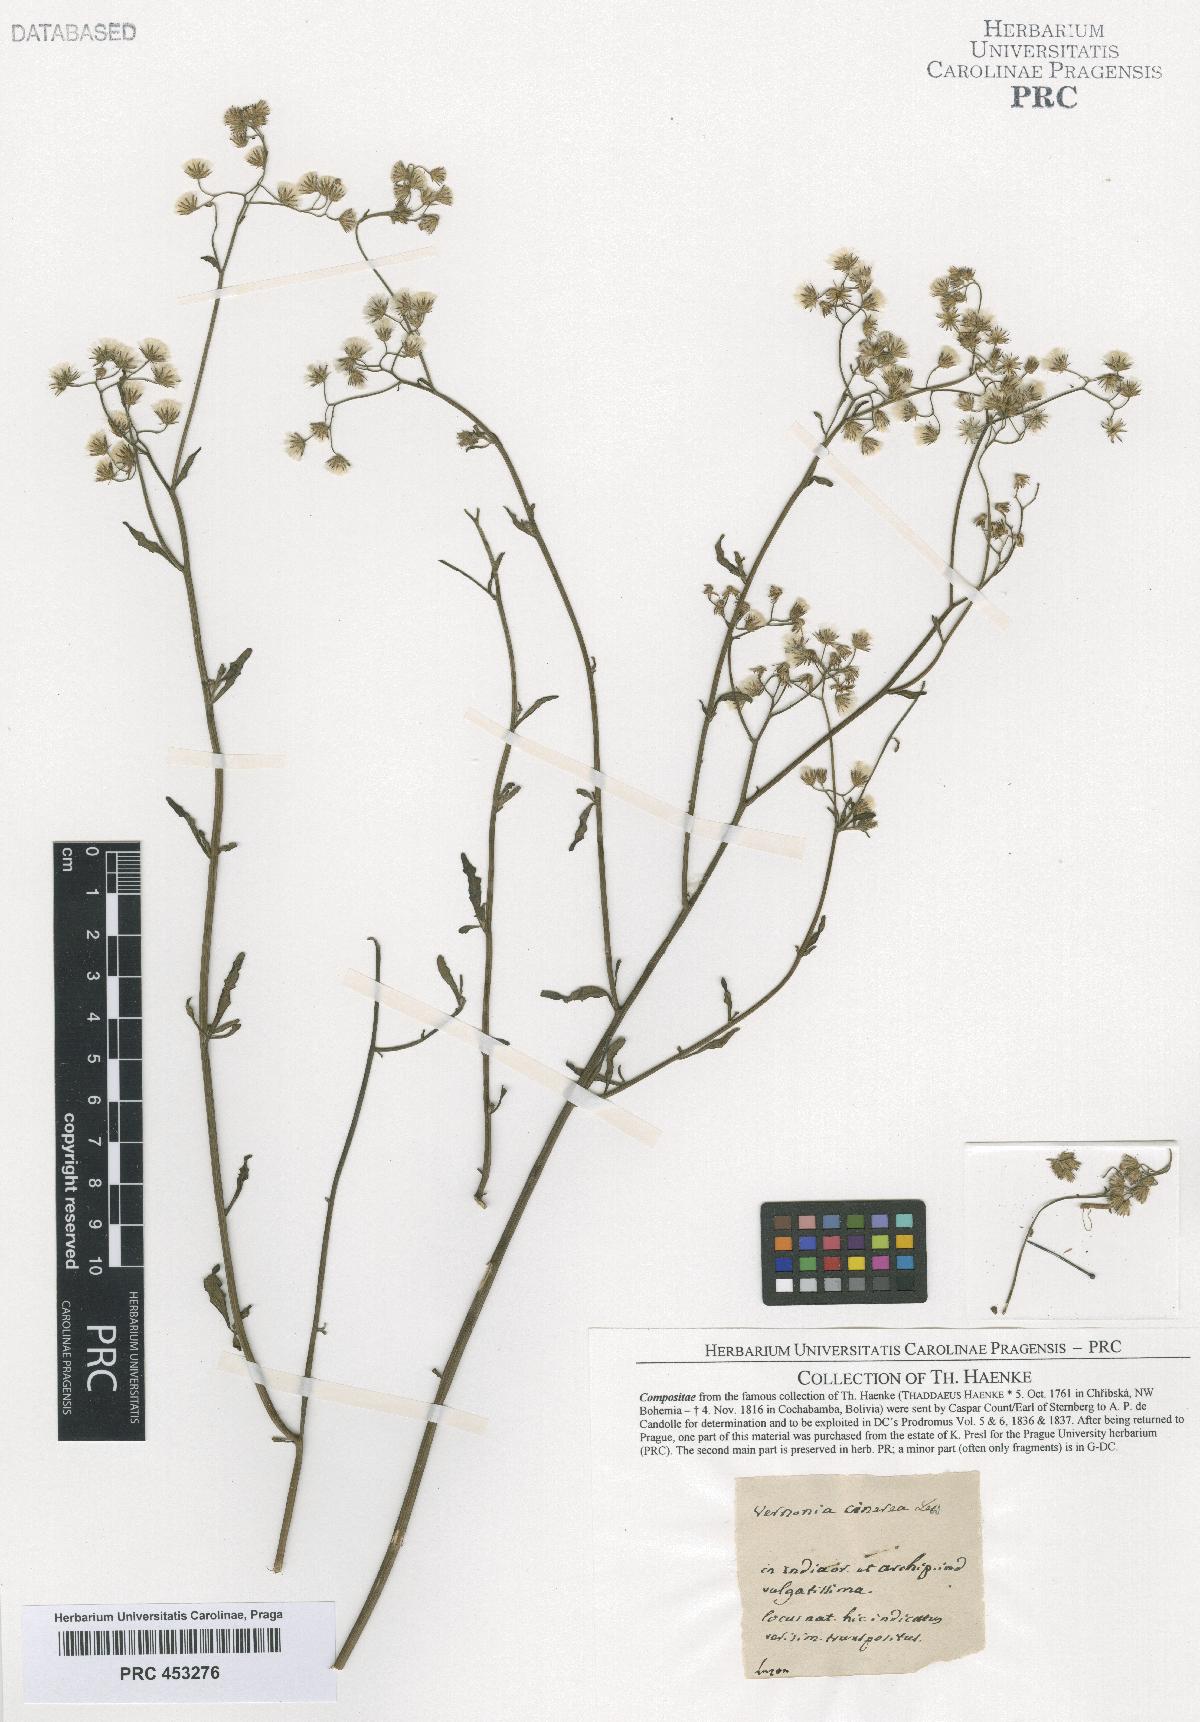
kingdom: Plantae
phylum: Tracheophyta
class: Magnoliopsida
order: Asterales
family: Asteraceae
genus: Cyanthillium
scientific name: Cyanthillium cinereum
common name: Little ironweed
